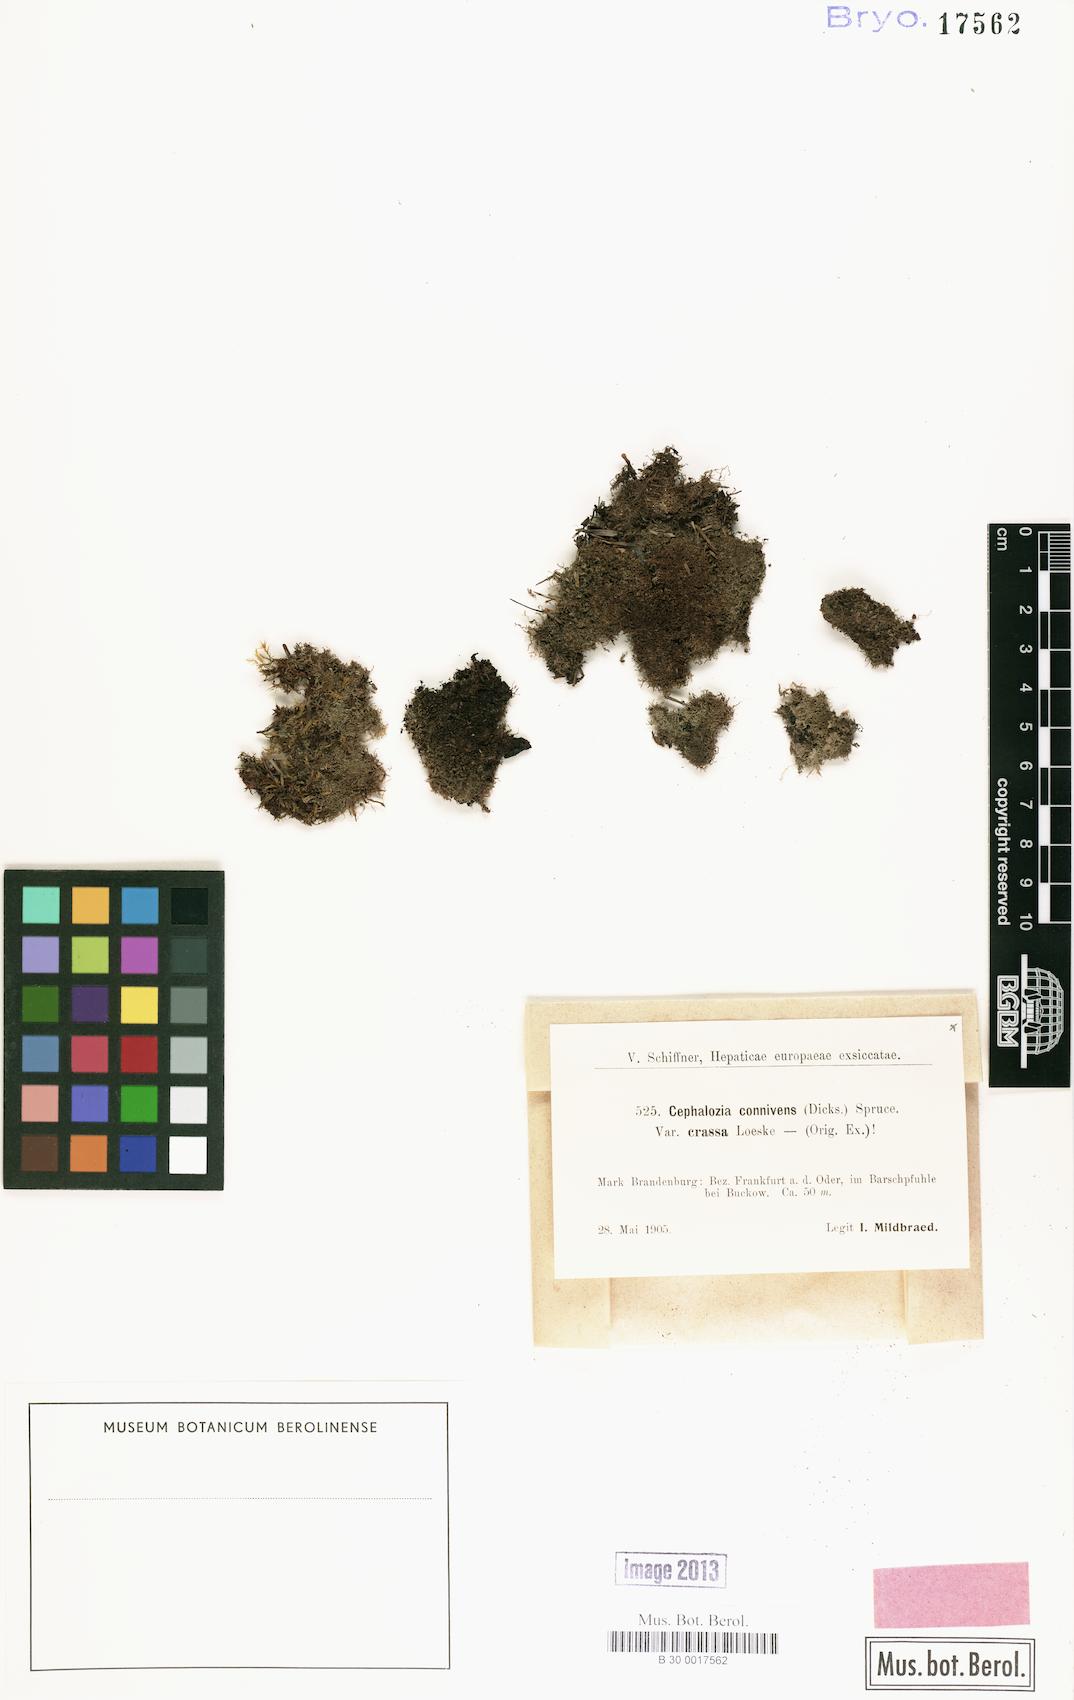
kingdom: Plantae
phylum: Marchantiophyta
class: Jungermanniopsida
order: Jungermanniales
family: Cephaloziaceae
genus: Fuscocephaloziopsis
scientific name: Fuscocephaloziopsis connivens
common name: Forcipated pincerwort
